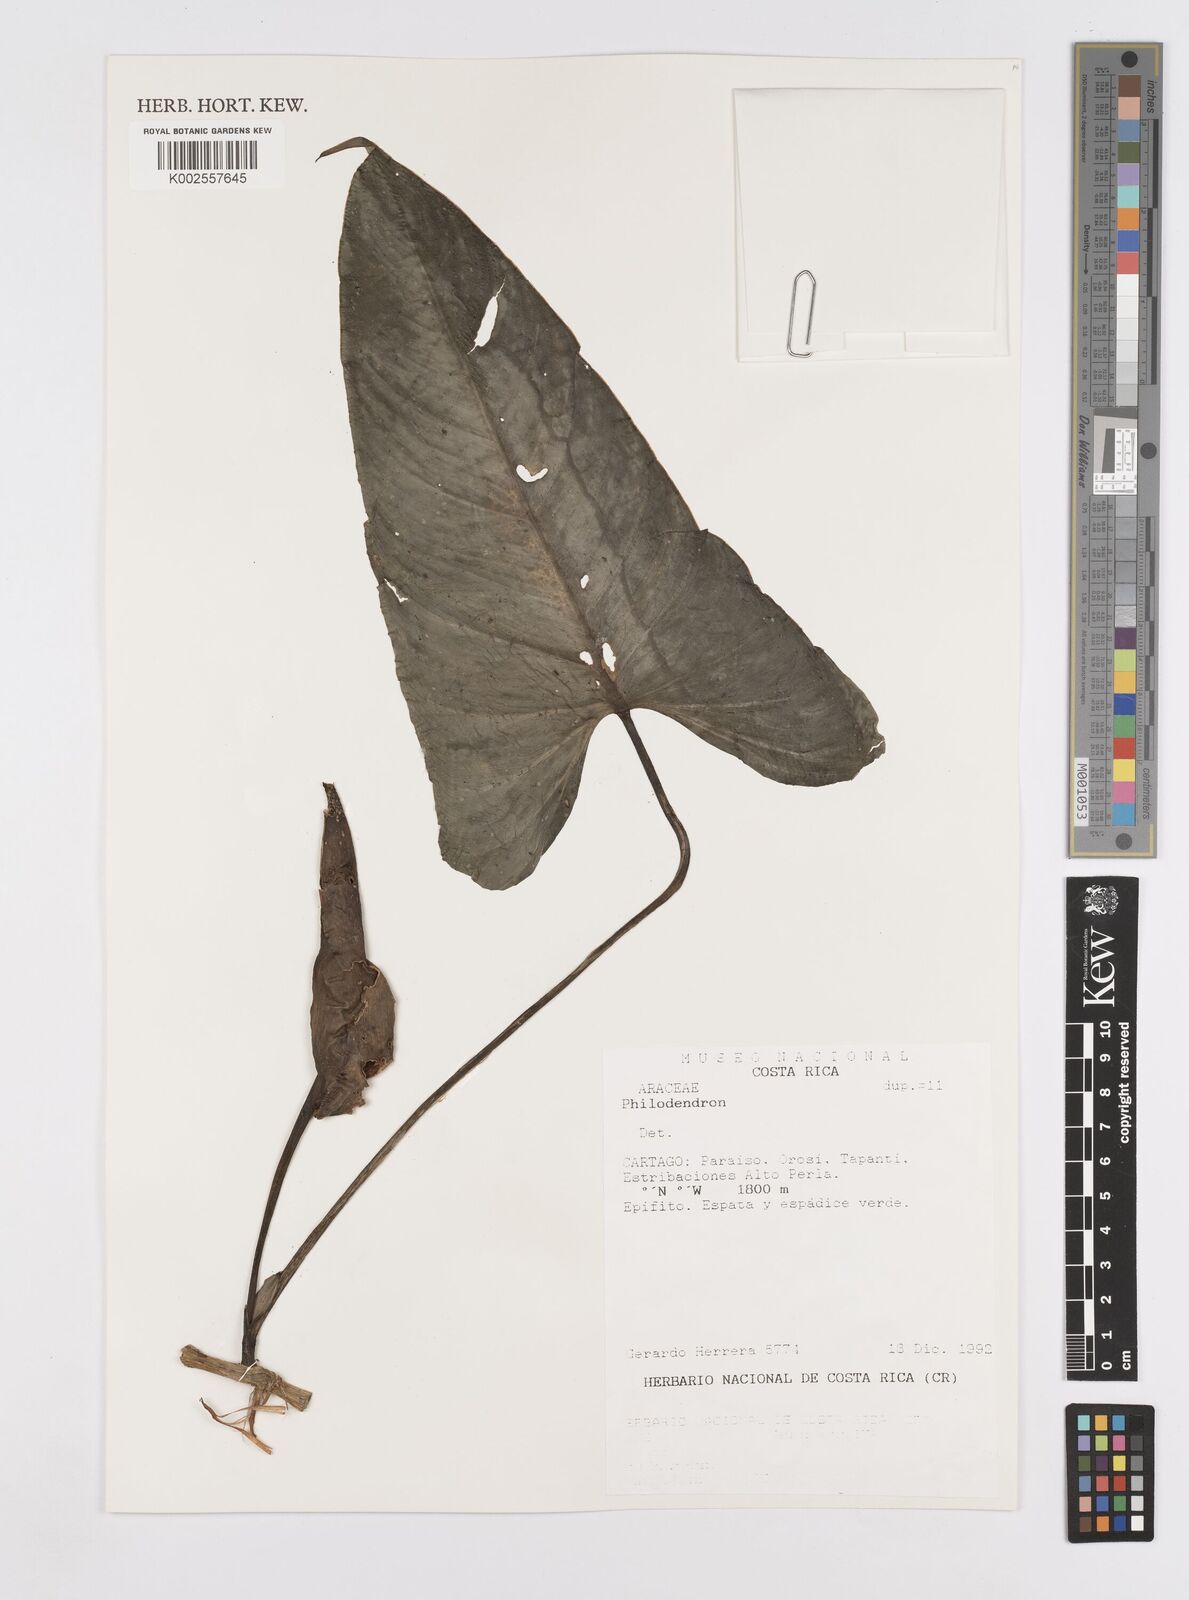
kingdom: Plantae
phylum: Tracheophyta
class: Liliopsida
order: Alismatales
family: Araceae
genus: Philodendron
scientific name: Philodendron wilburii
